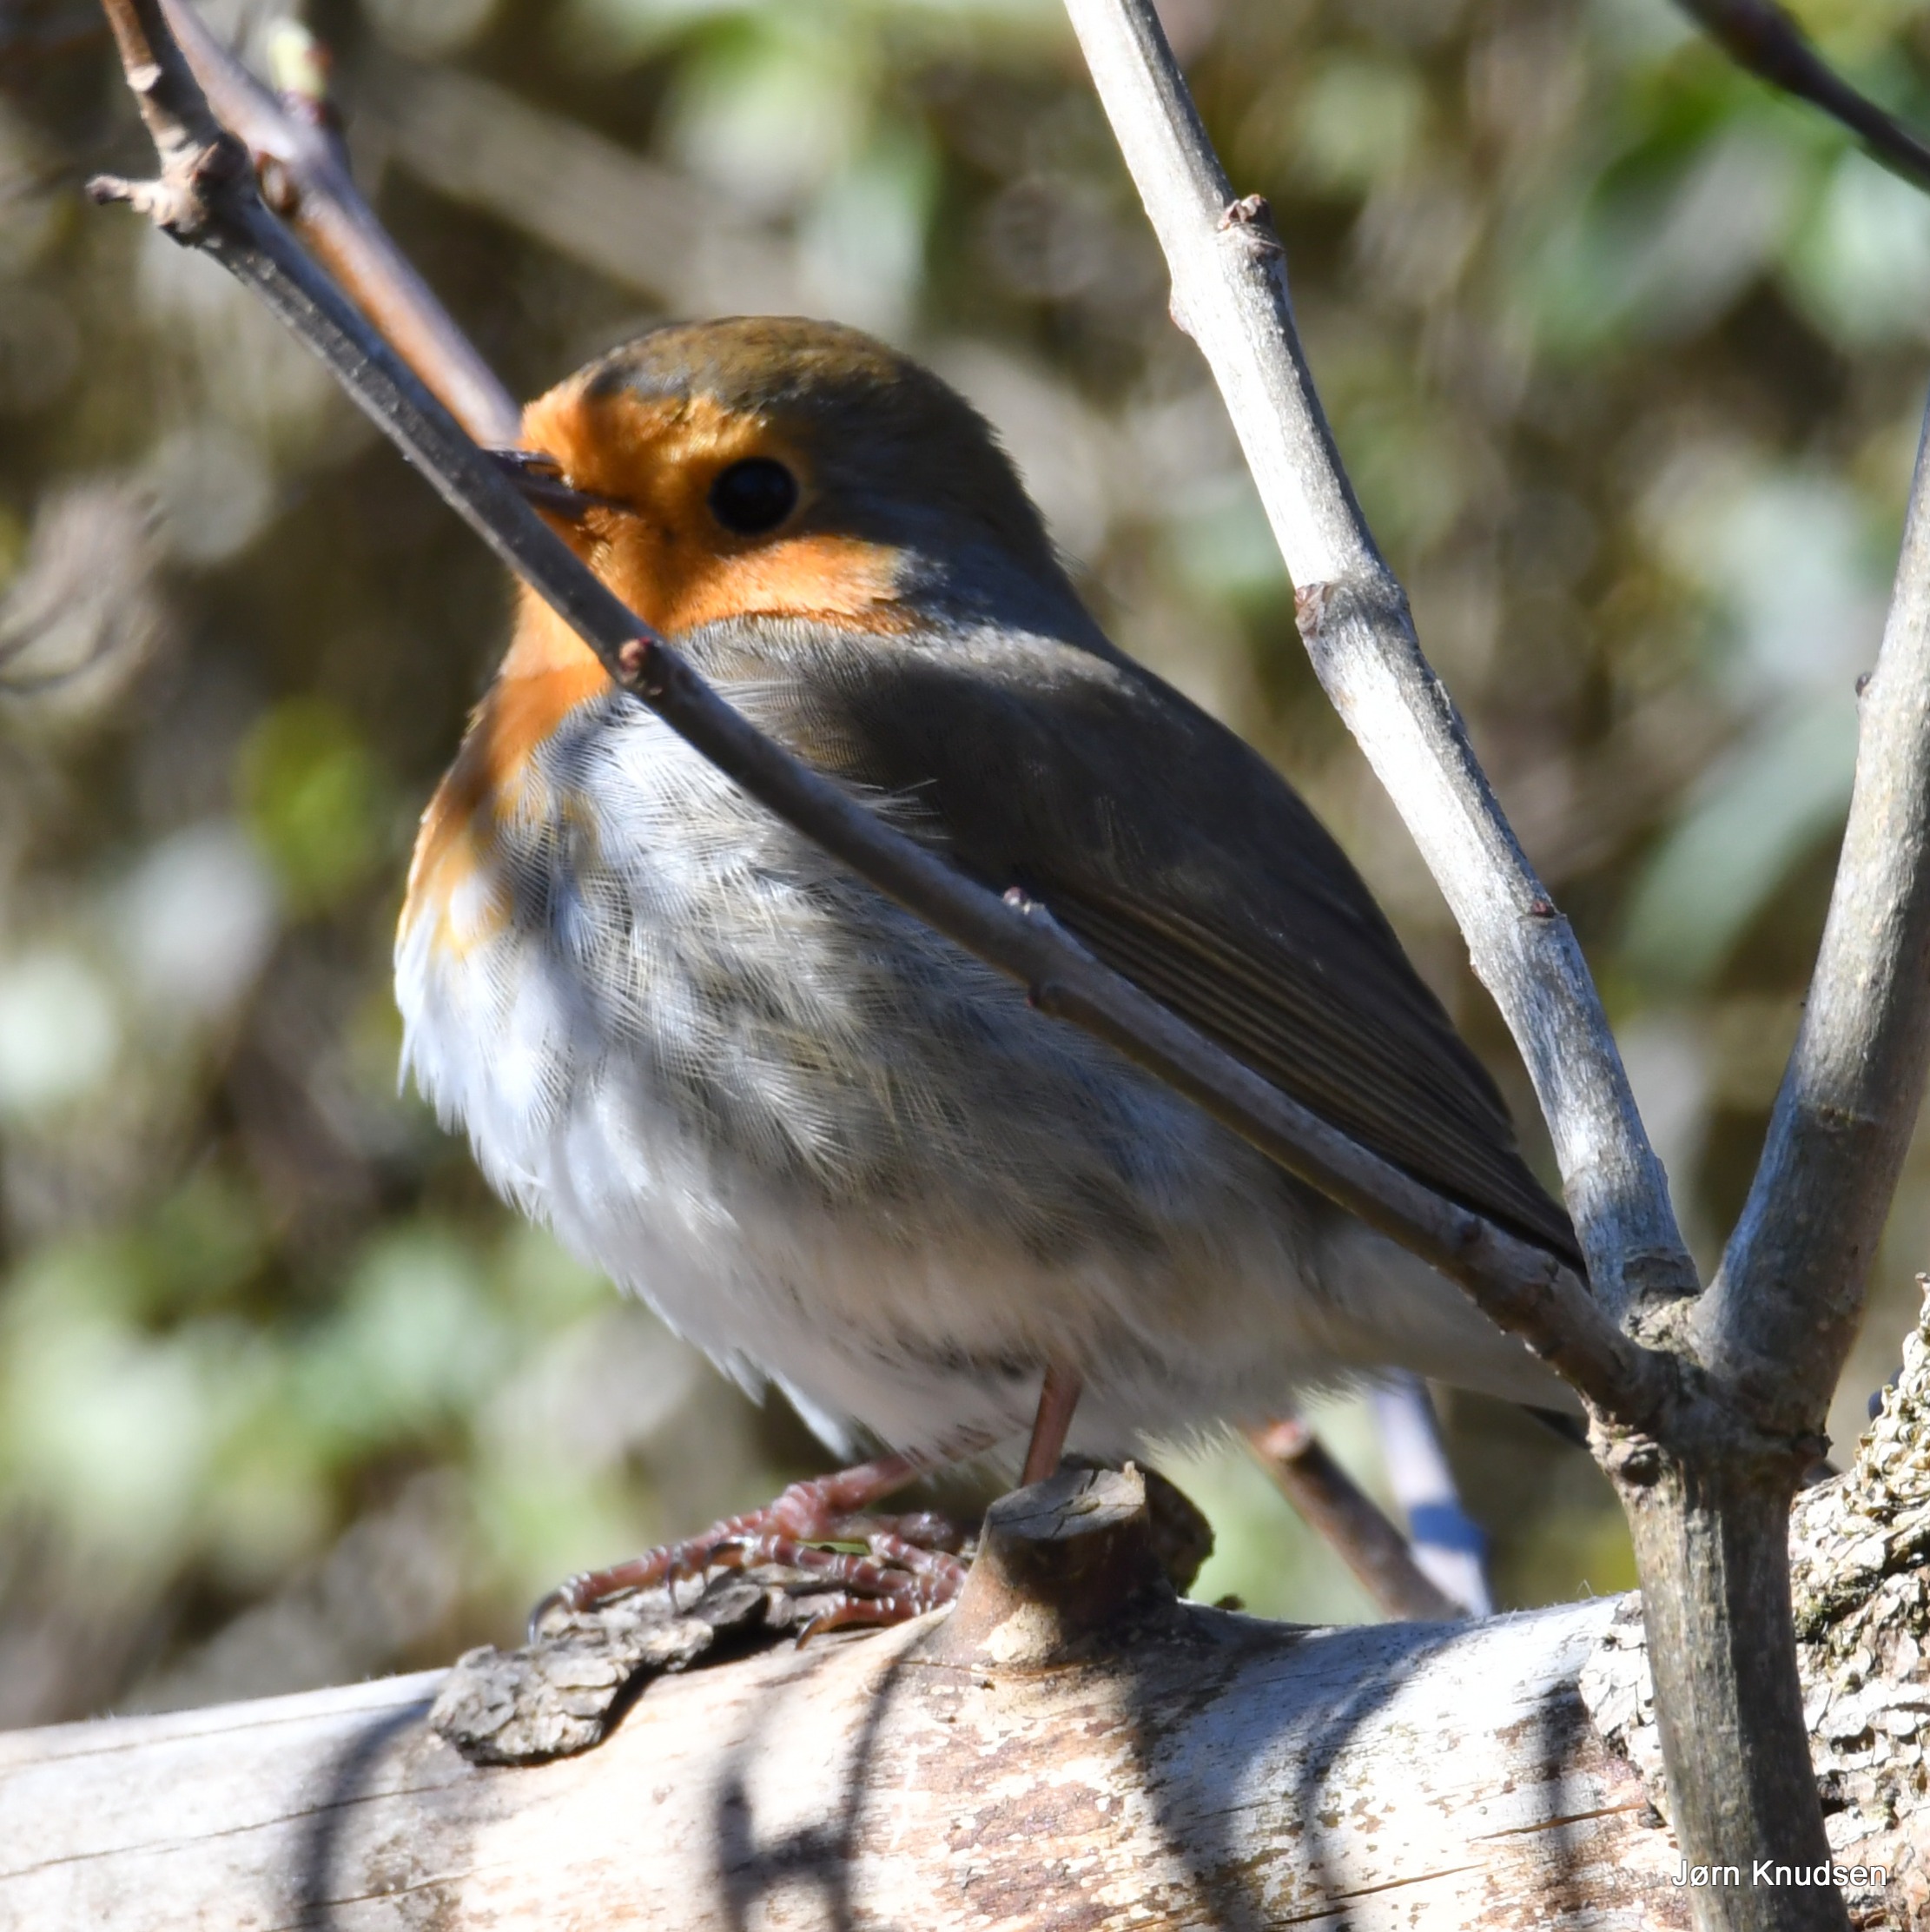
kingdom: Animalia
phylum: Chordata
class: Aves
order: Passeriformes
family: Muscicapidae
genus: Erithacus
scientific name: Erithacus rubecula
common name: Rødhals/rødkælk
